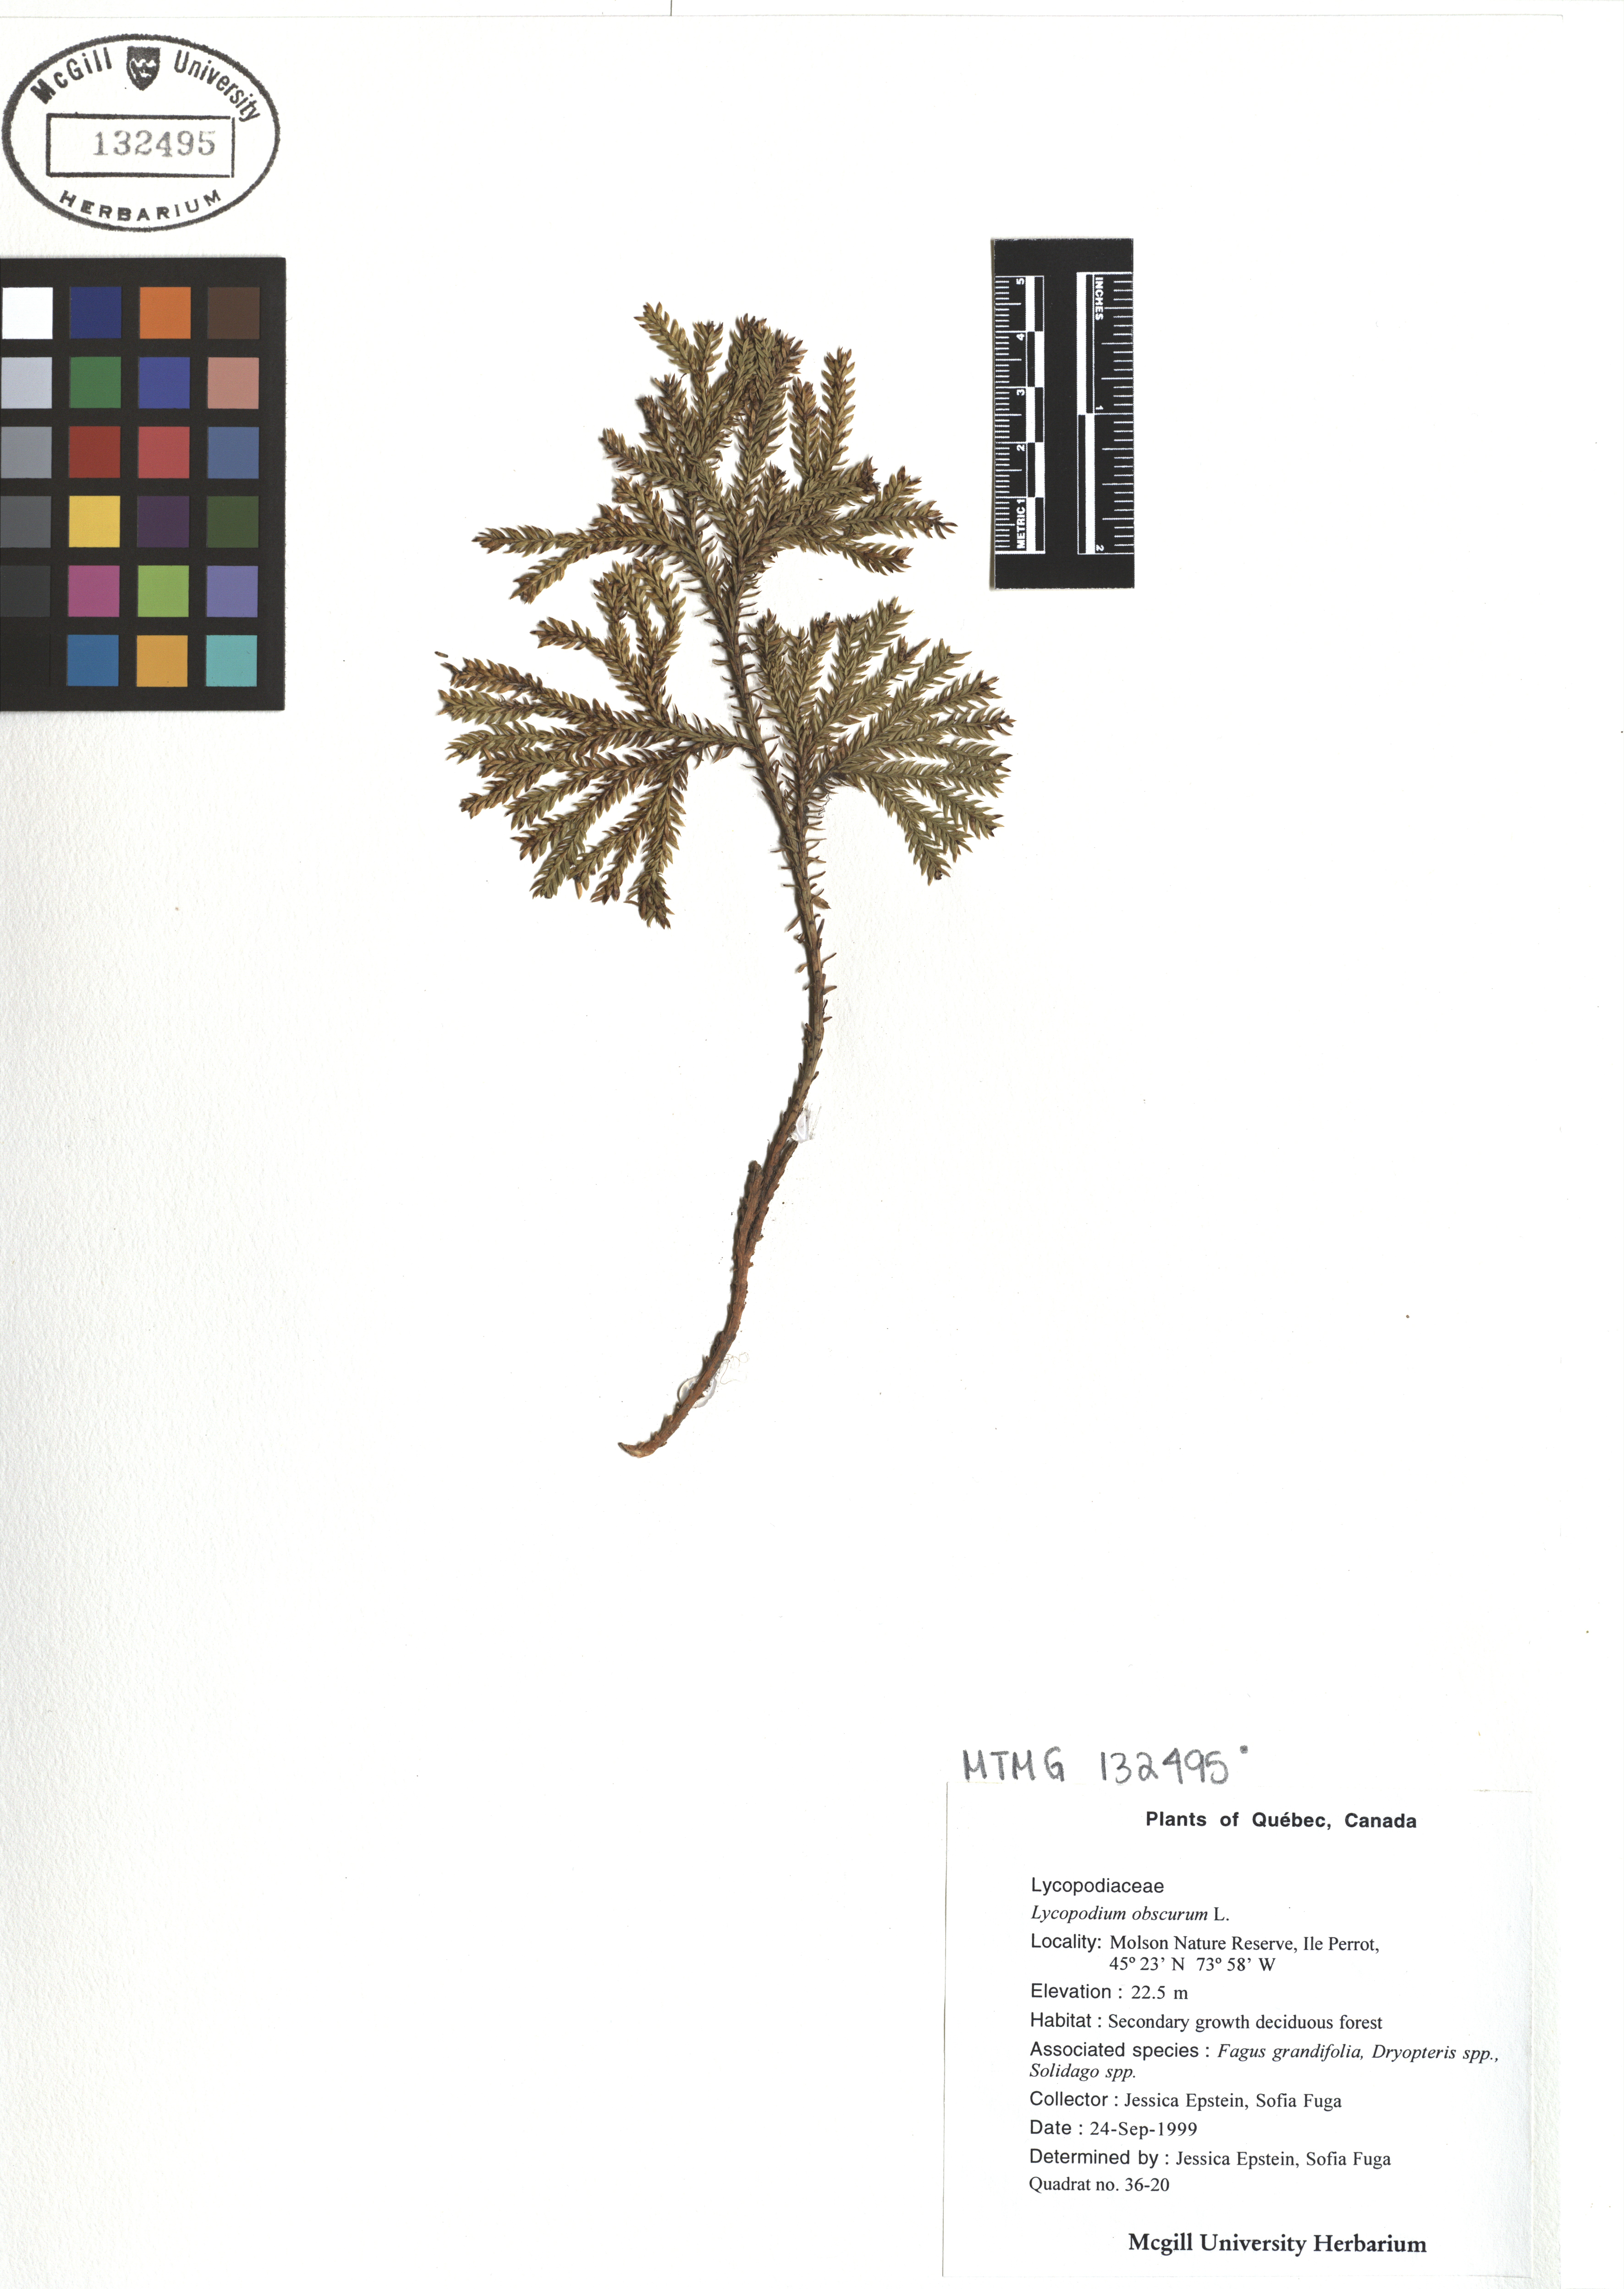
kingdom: Plantae
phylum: Tracheophyta
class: Lycopodiopsida
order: Lycopodiales
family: Lycopodiaceae
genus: Dendrolycopodium
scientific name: Dendrolycopodium obscurum
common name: Common ground-pine
